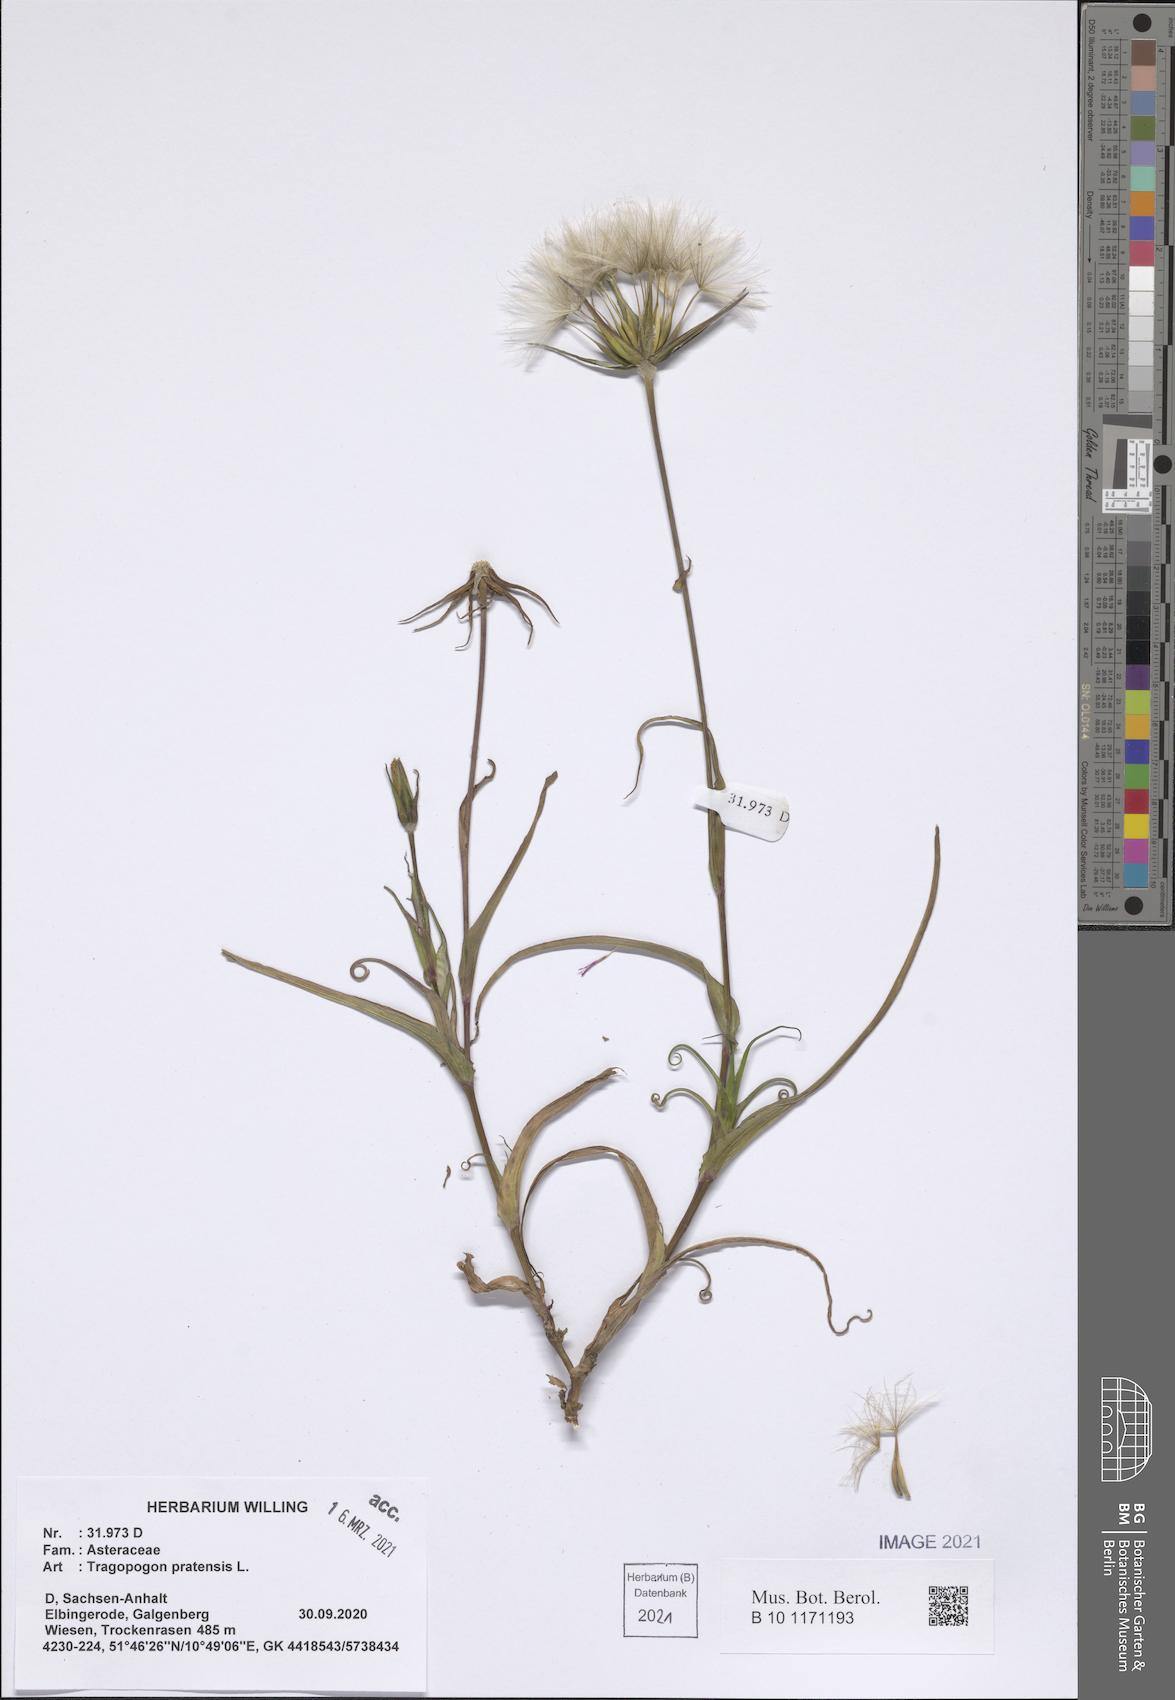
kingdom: Plantae
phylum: Tracheophyta
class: Magnoliopsida
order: Asterales
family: Asteraceae
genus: Tragopogon
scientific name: Tragopogon pratensis
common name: Goat's-beard
